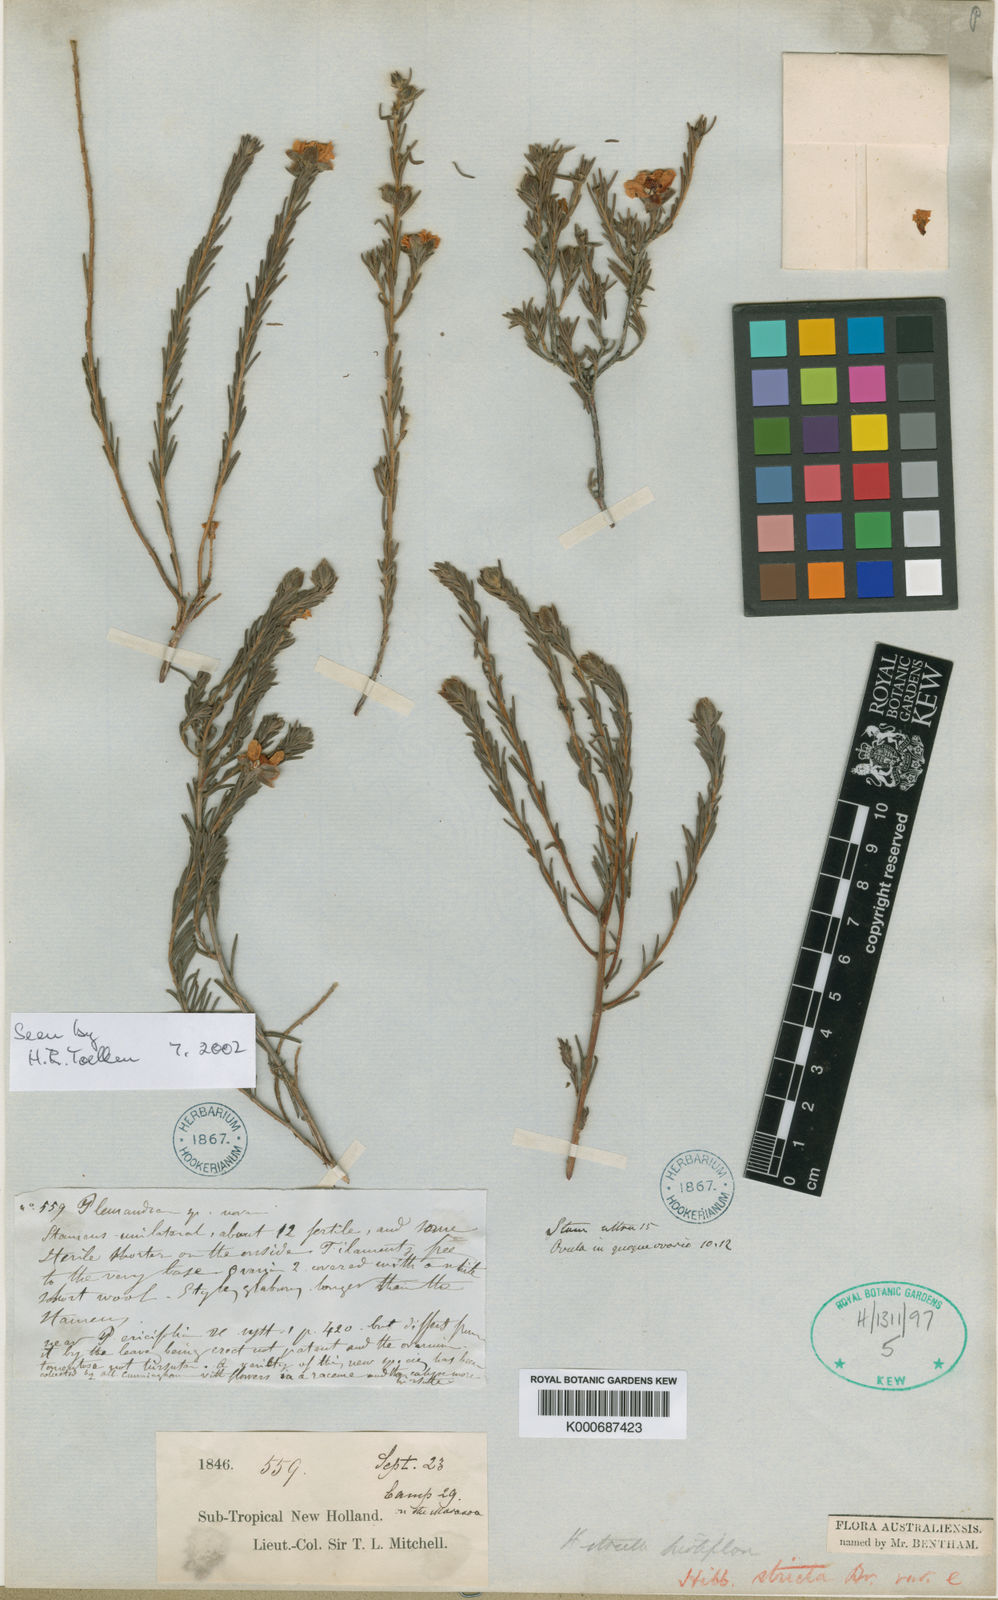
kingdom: Plantae
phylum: Tracheophyta
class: Magnoliopsida
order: Dilleniales
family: Dilleniaceae
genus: Hibbertia
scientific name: Hibbertia stricta
